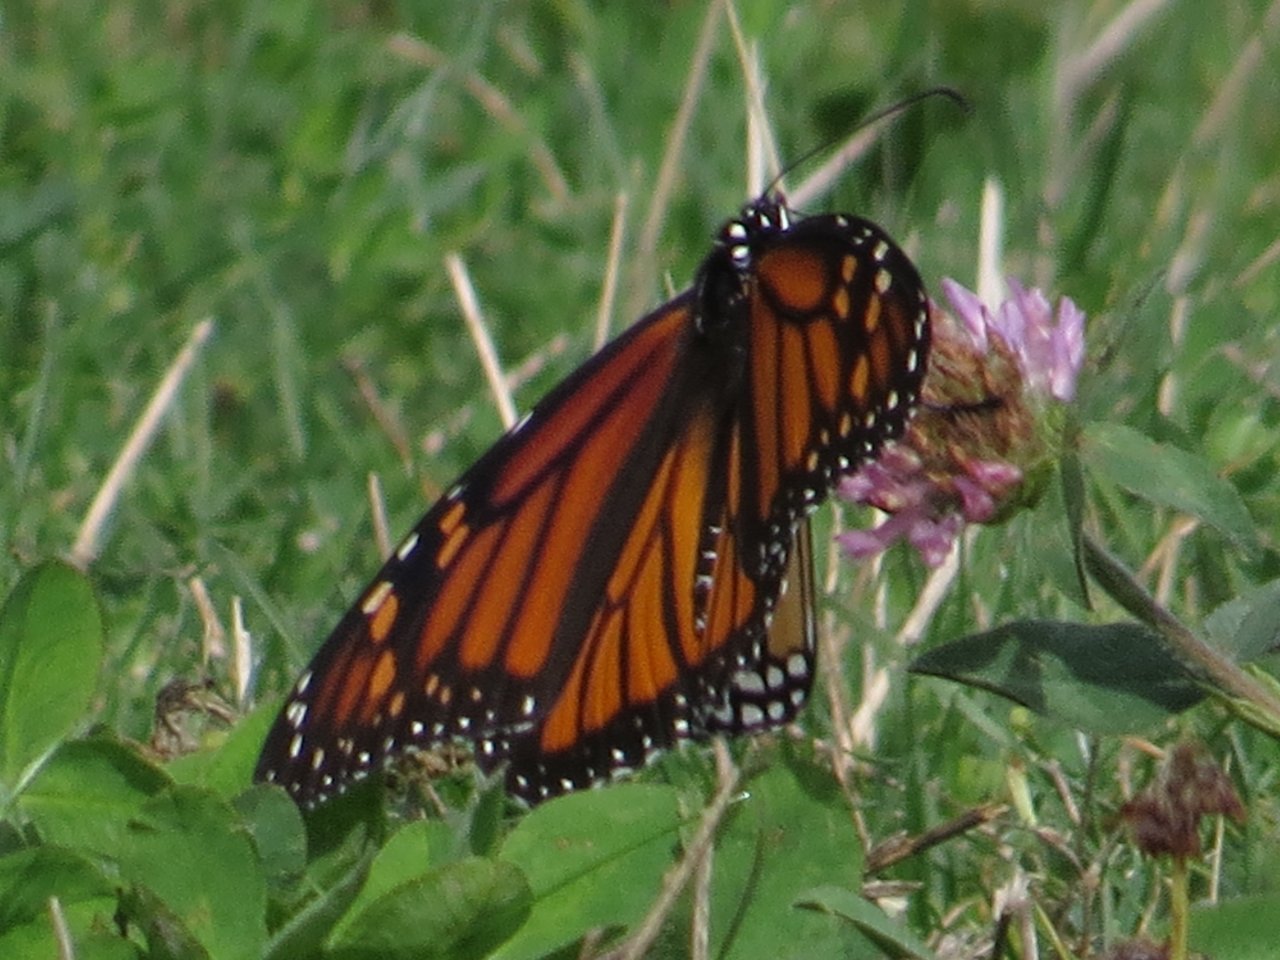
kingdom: Animalia
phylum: Arthropoda
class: Insecta
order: Lepidoptera
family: Nymphalidae
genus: Danaus
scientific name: Danaus plexippus
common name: Monarch
